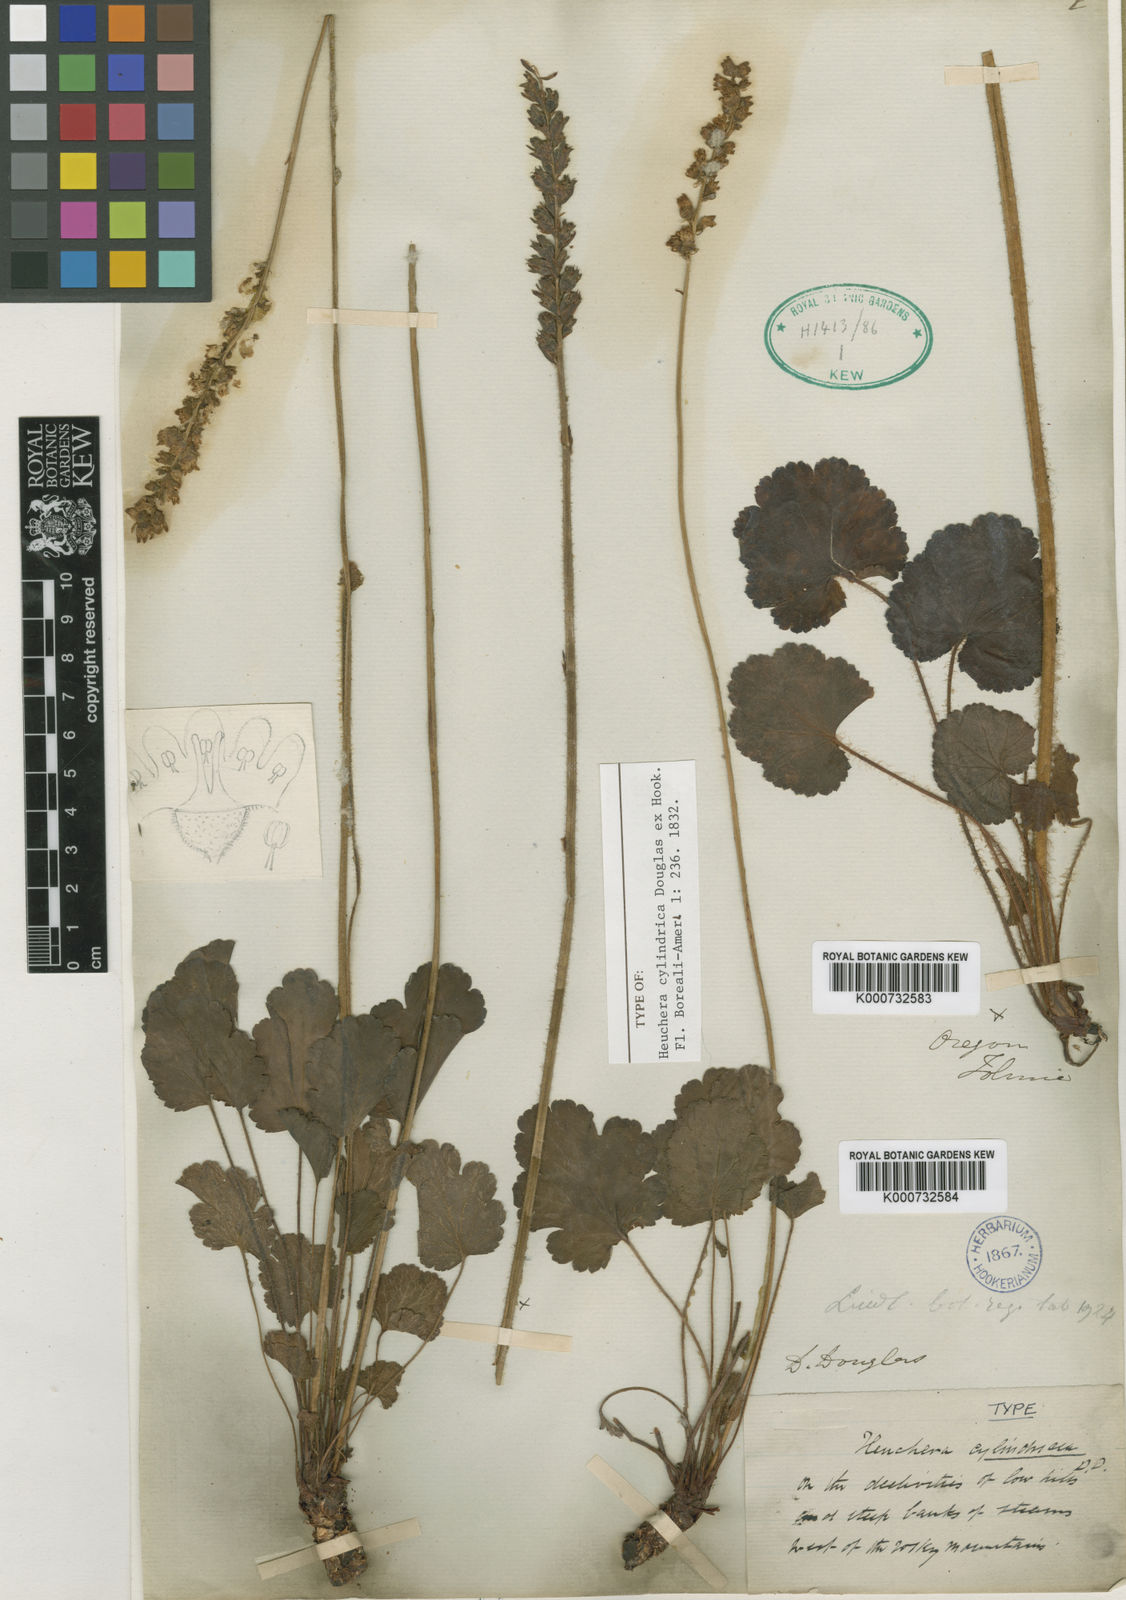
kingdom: Plantae
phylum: Tracheophyta
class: Magnoliopsida
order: Saxifragales
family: Saxifragaceae
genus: Heuchera
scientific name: Heuchera cylindrica
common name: Mat alumroot
